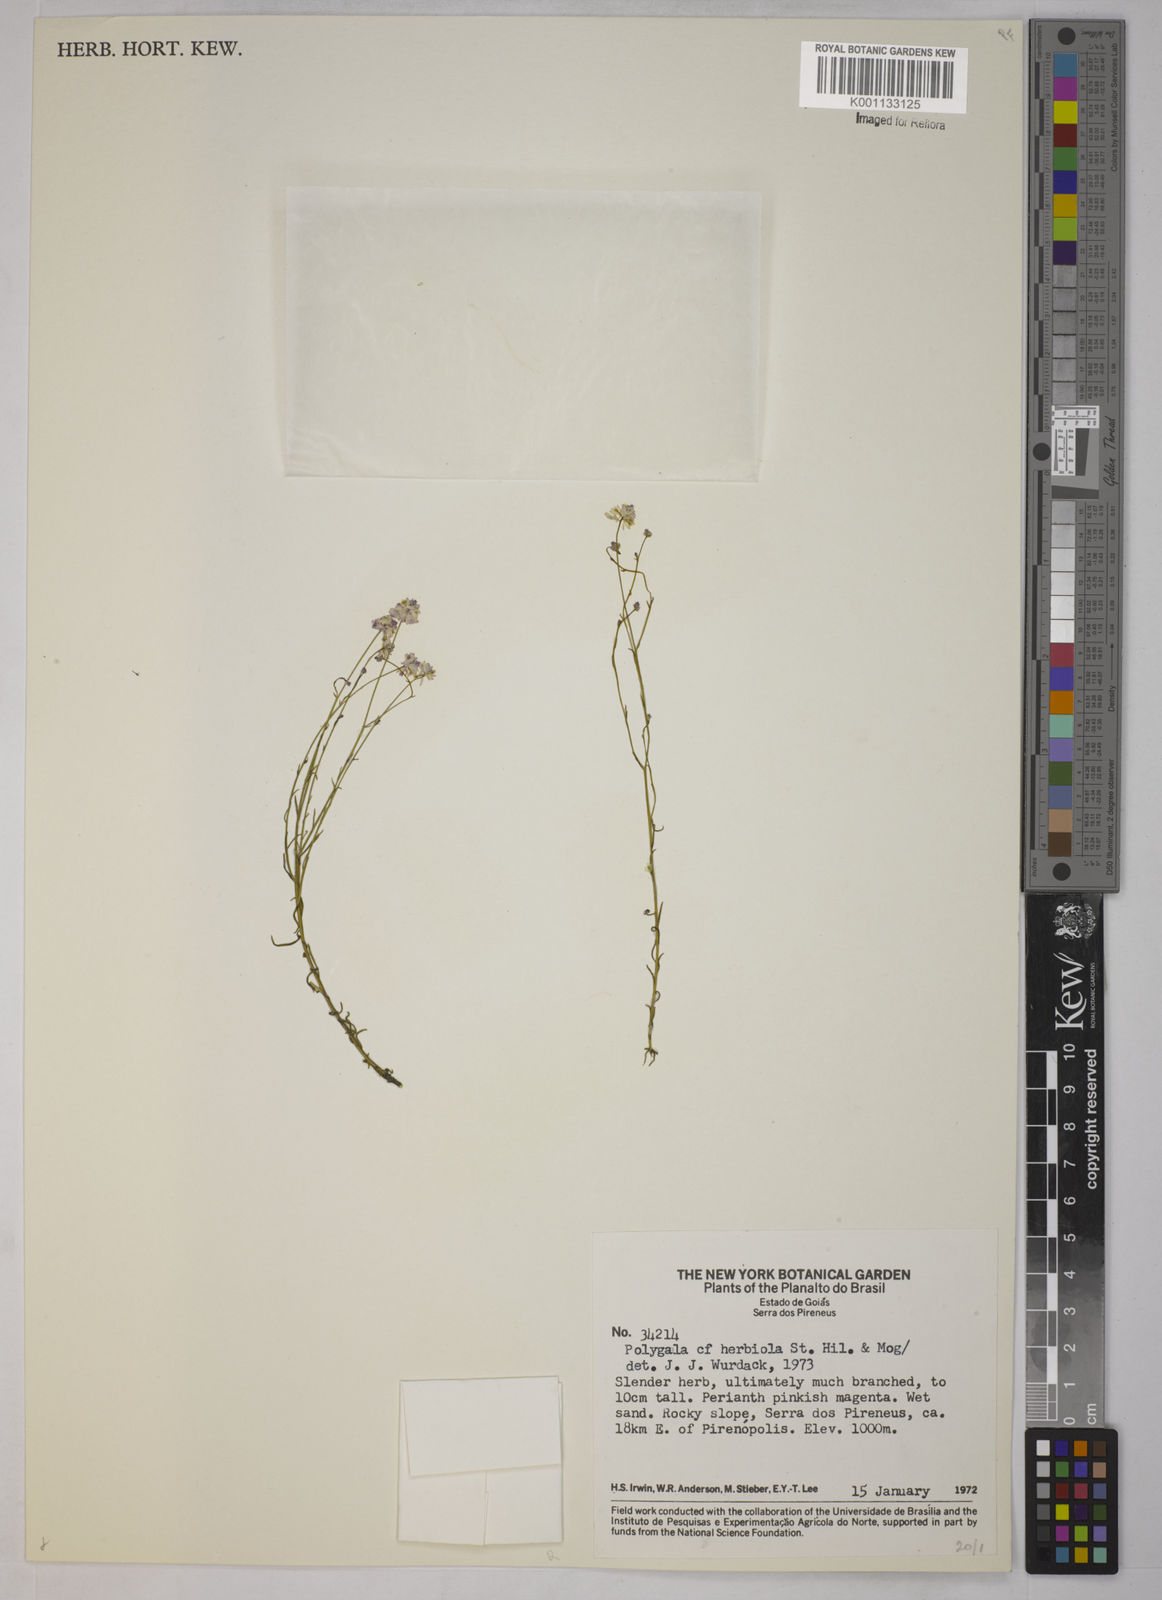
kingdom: Plantae
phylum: Tracheophyta
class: Magnoliopsida
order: Fabales
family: Polygalaceae
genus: Polygala
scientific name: Polygala herbiola
